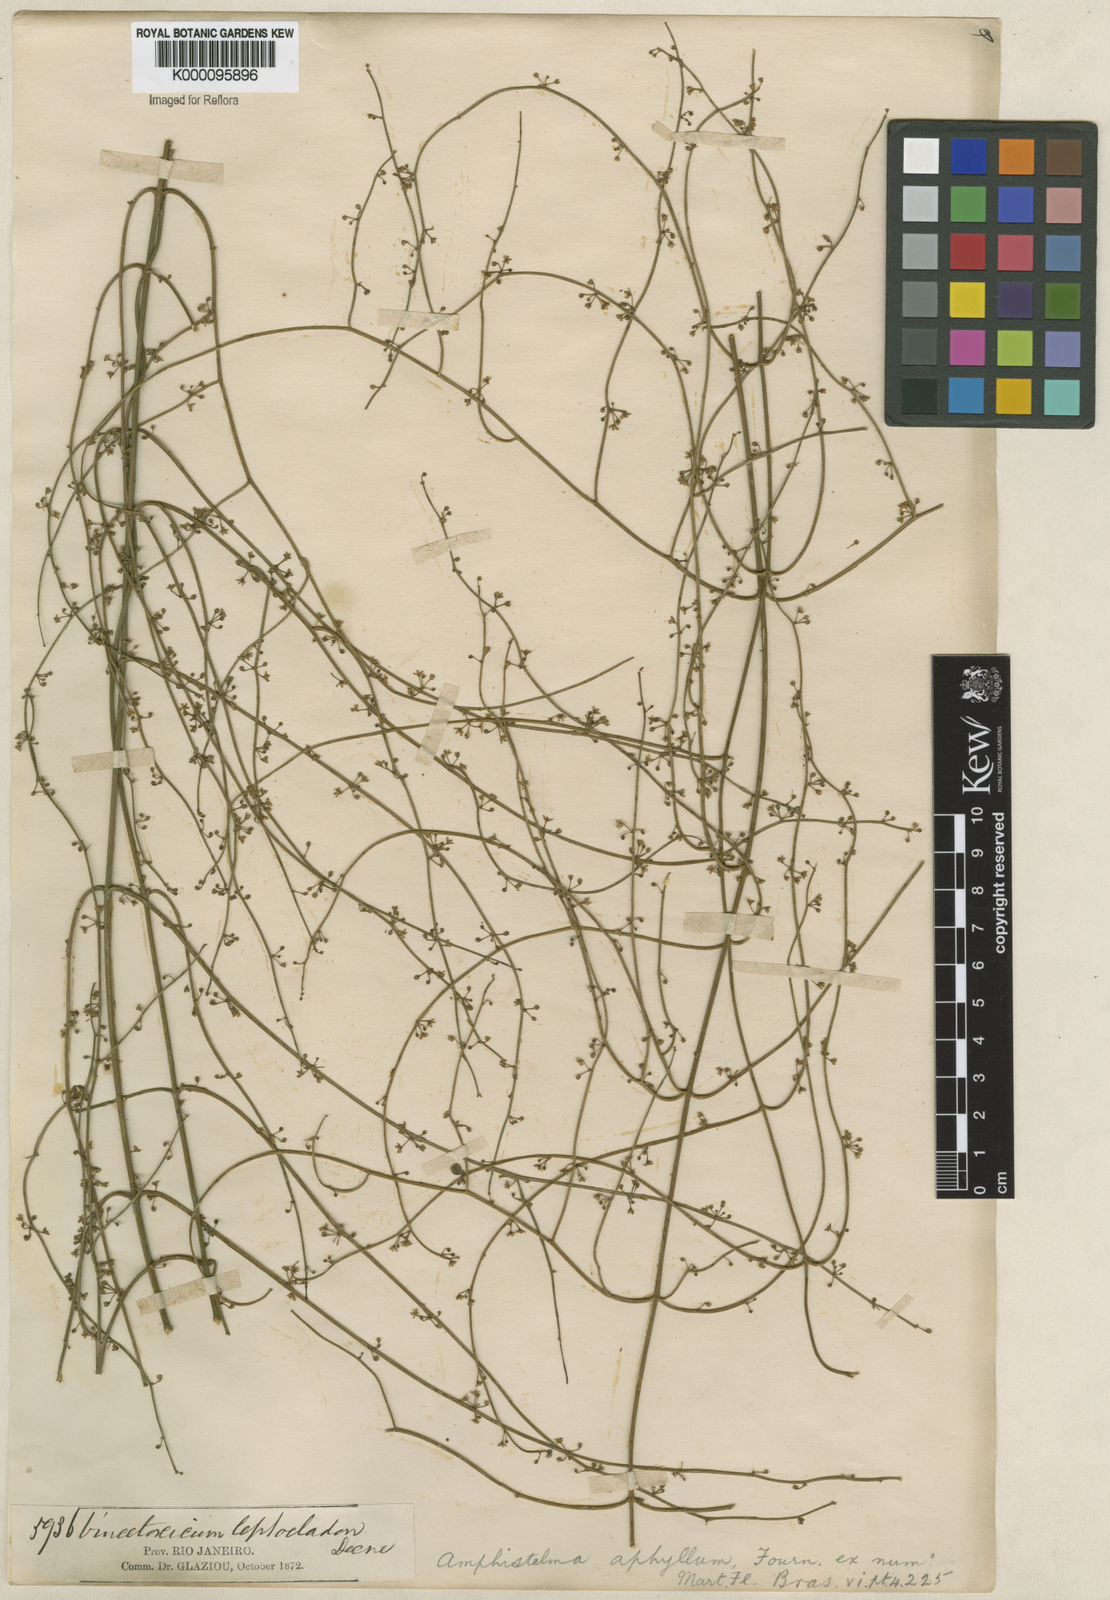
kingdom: Plantae
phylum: Tracheophyta
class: Magnoliopsida
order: Gentianales
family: Apocynaceae
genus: Orthosia
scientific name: Orthosia scoparia
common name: Leafless swallow-wort
